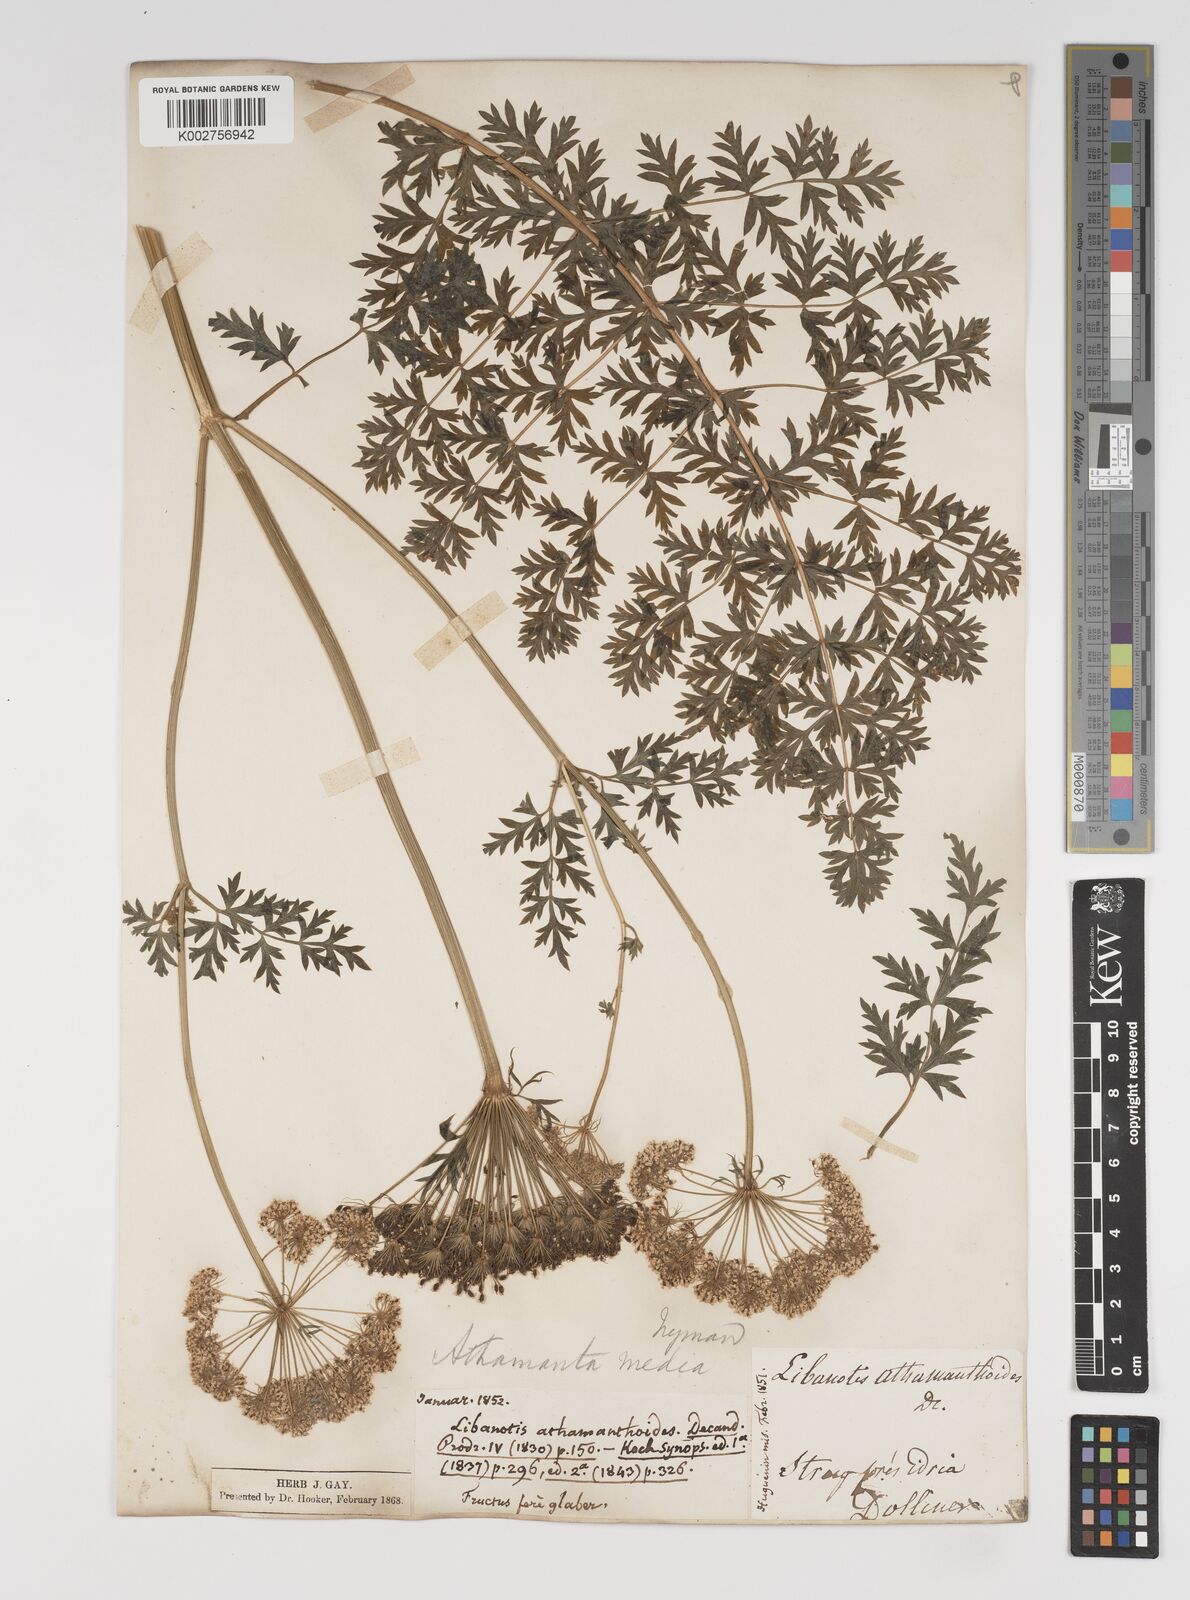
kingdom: Plantae
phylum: Tracheophyta
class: Magnoliopsida
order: Apiales
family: Apiaceae
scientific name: Apiaceae
